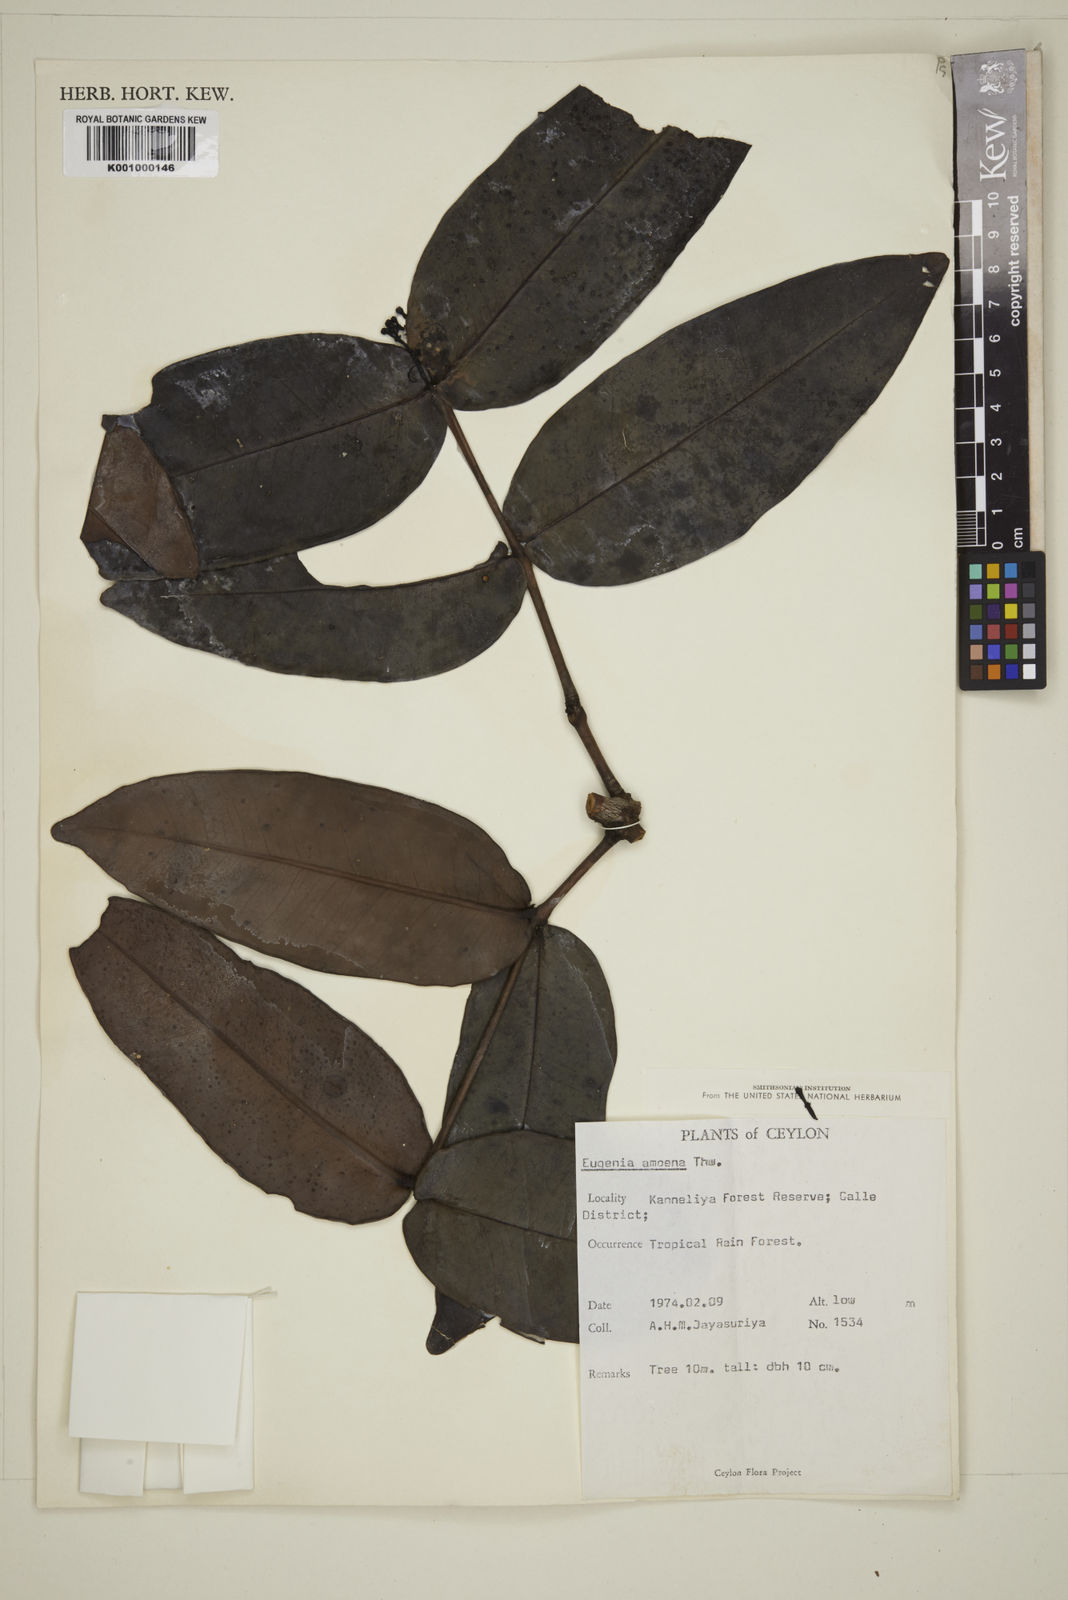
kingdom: Plantae
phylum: Tracheophyta
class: Magnoliopsida
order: Myrtales
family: Myrtaceae
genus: Eugenia
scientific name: Eugenia amoena
